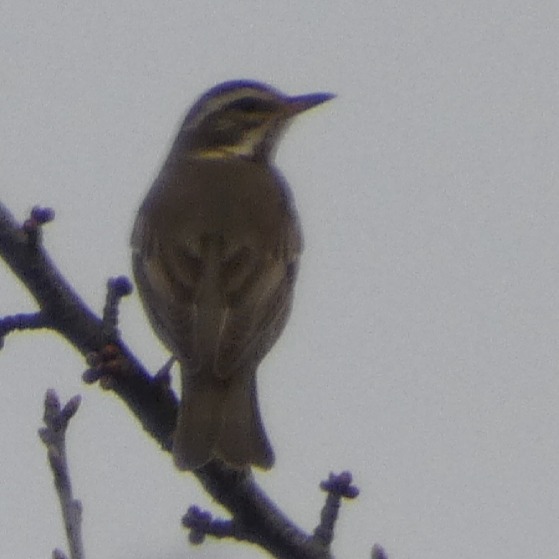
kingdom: Animalia
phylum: Chordata
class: Aves
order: Passeriformes
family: Turdidae
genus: Turdus
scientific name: Turdus iliacus
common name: Vindrossel
